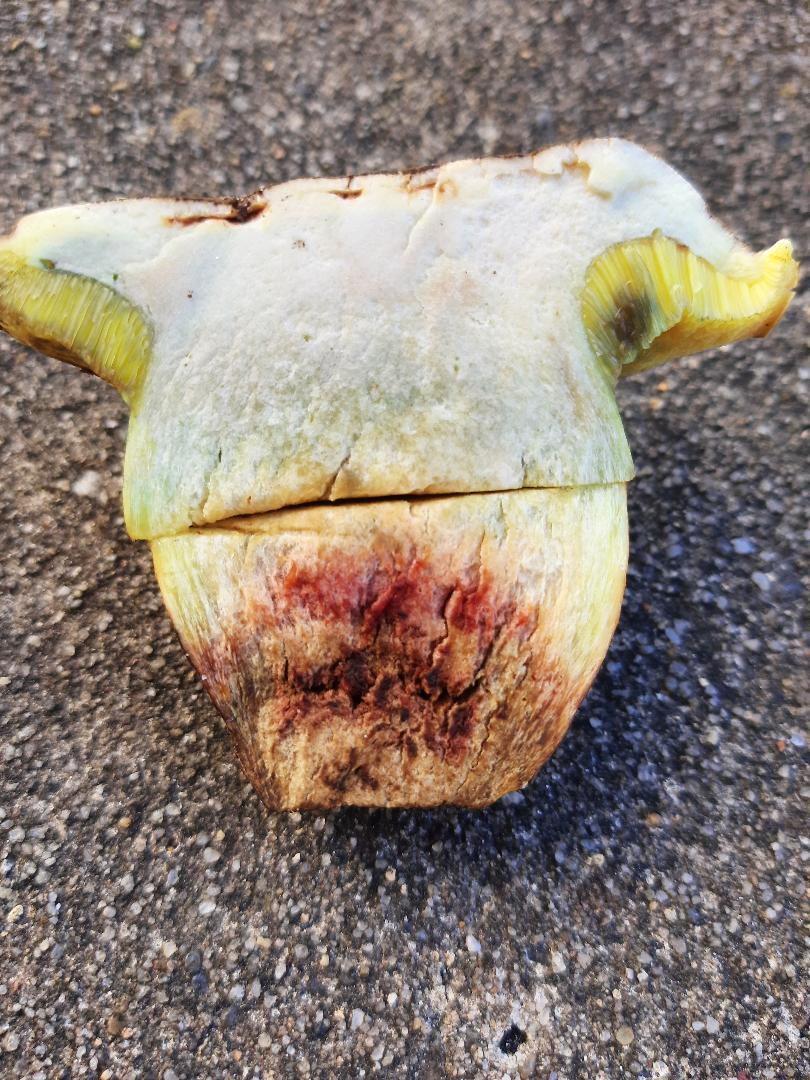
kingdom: Fungi
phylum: Basidiomycota
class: Agaricomycetes
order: Boletales
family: Boletaceae
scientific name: Boletaceae
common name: rørhatfamilien
